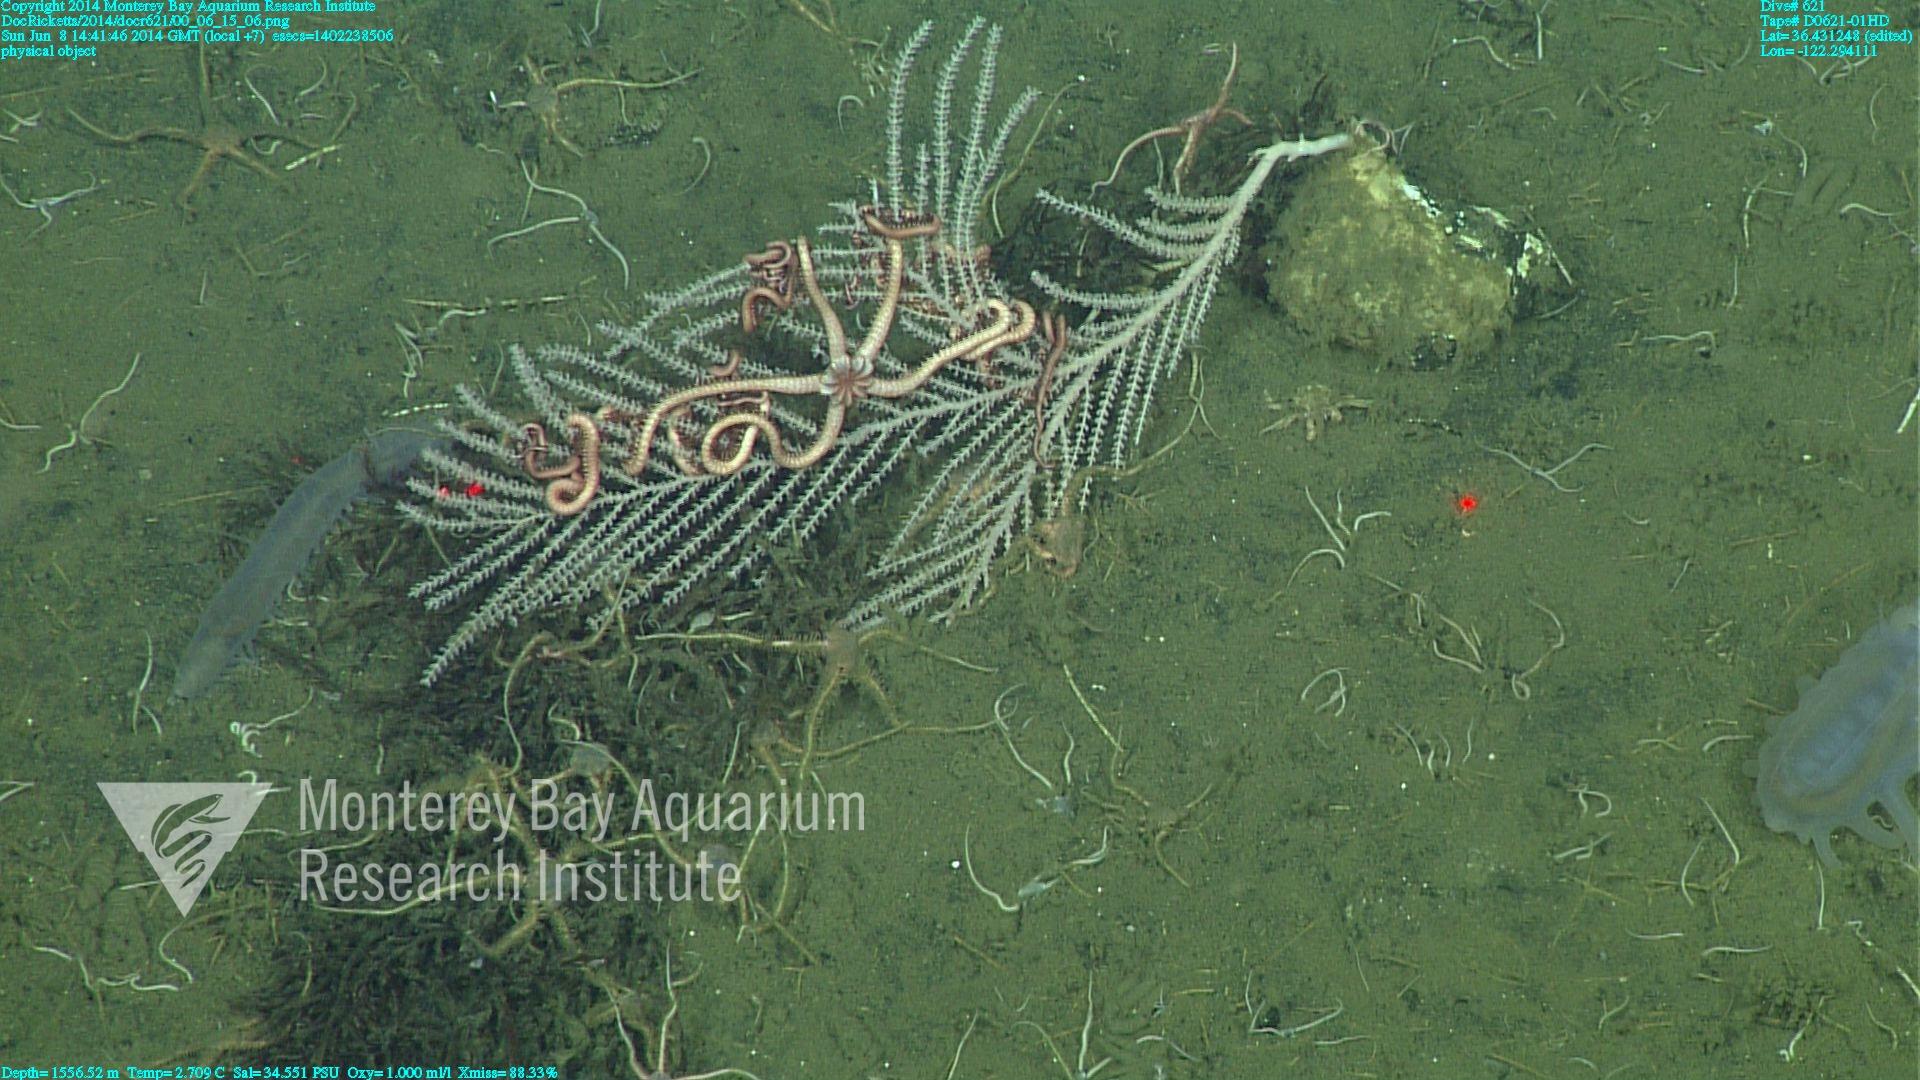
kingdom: Animalia
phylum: Cnidaria
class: Anthozoa
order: Scleralcyonacea
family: Primnoidae
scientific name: Primnoidae
